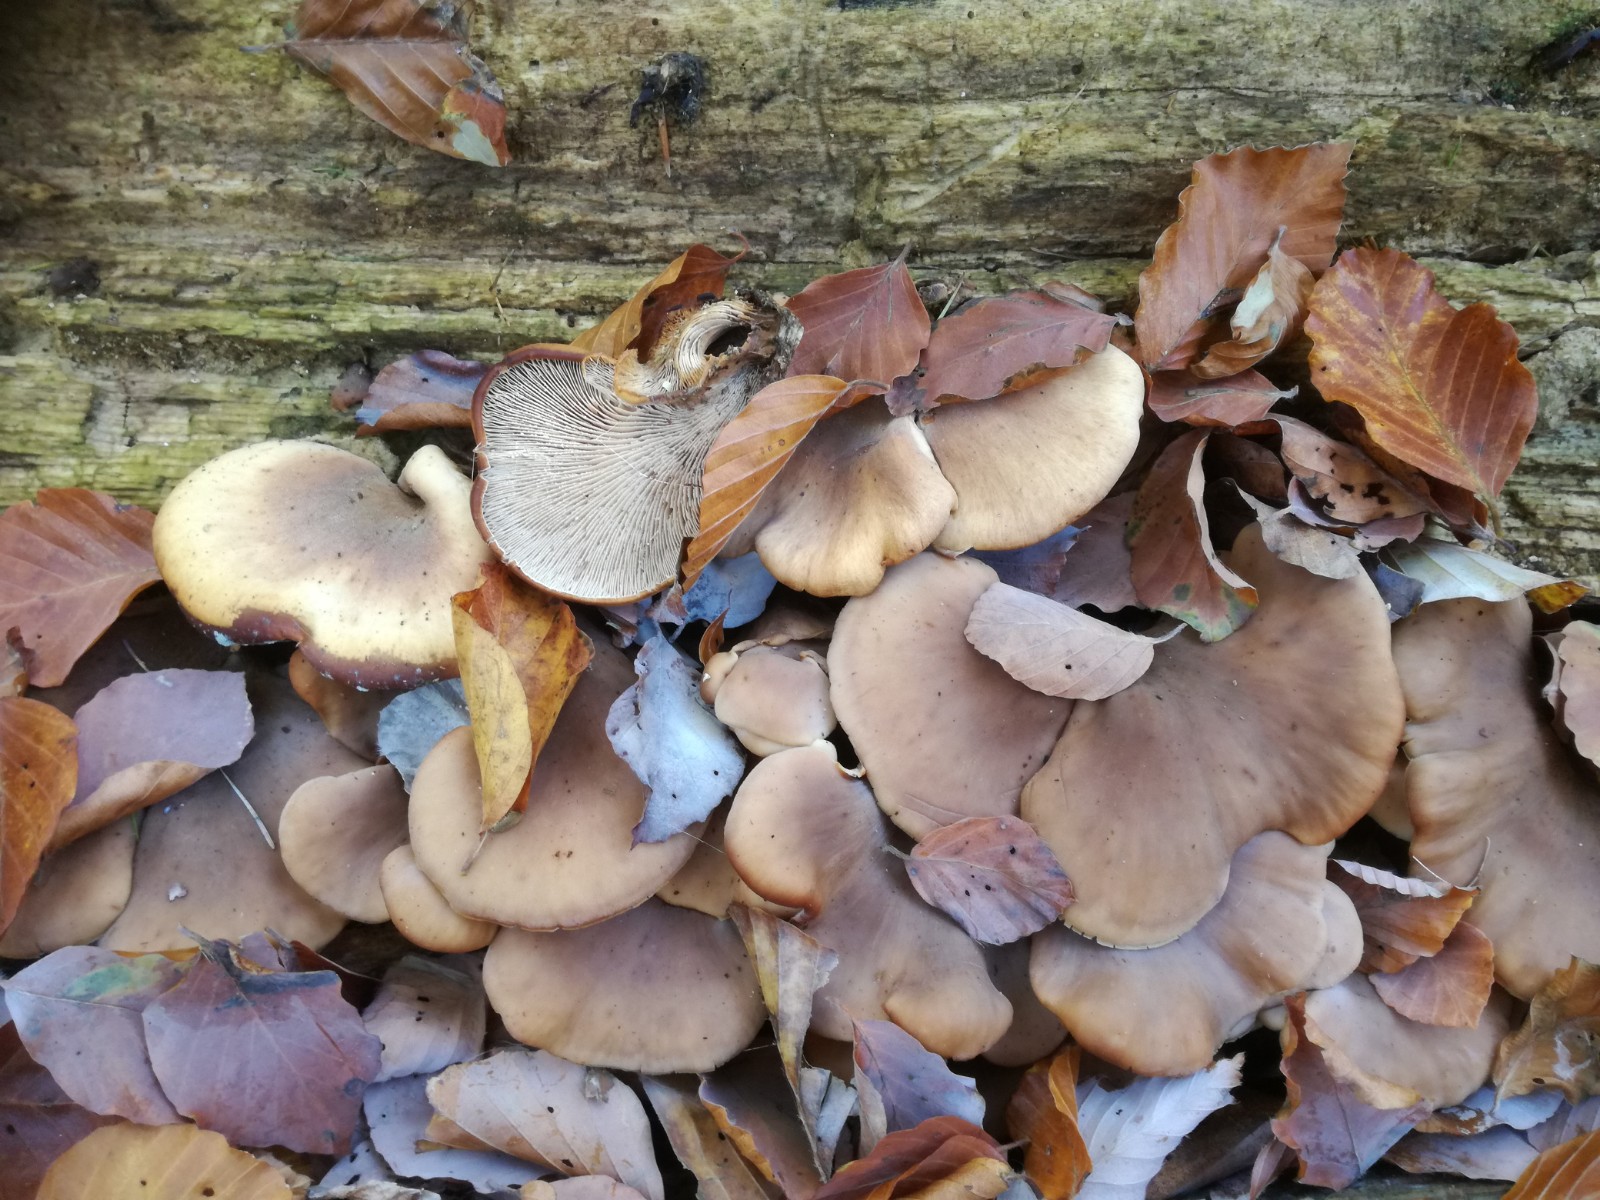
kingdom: Fungi
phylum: Basidiomycota
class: Agaricomycetes
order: Russulales
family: Auriscalpiaceae
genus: Lentinellus
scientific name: Lentinellus ursinus
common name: børstehåret savbladhat
